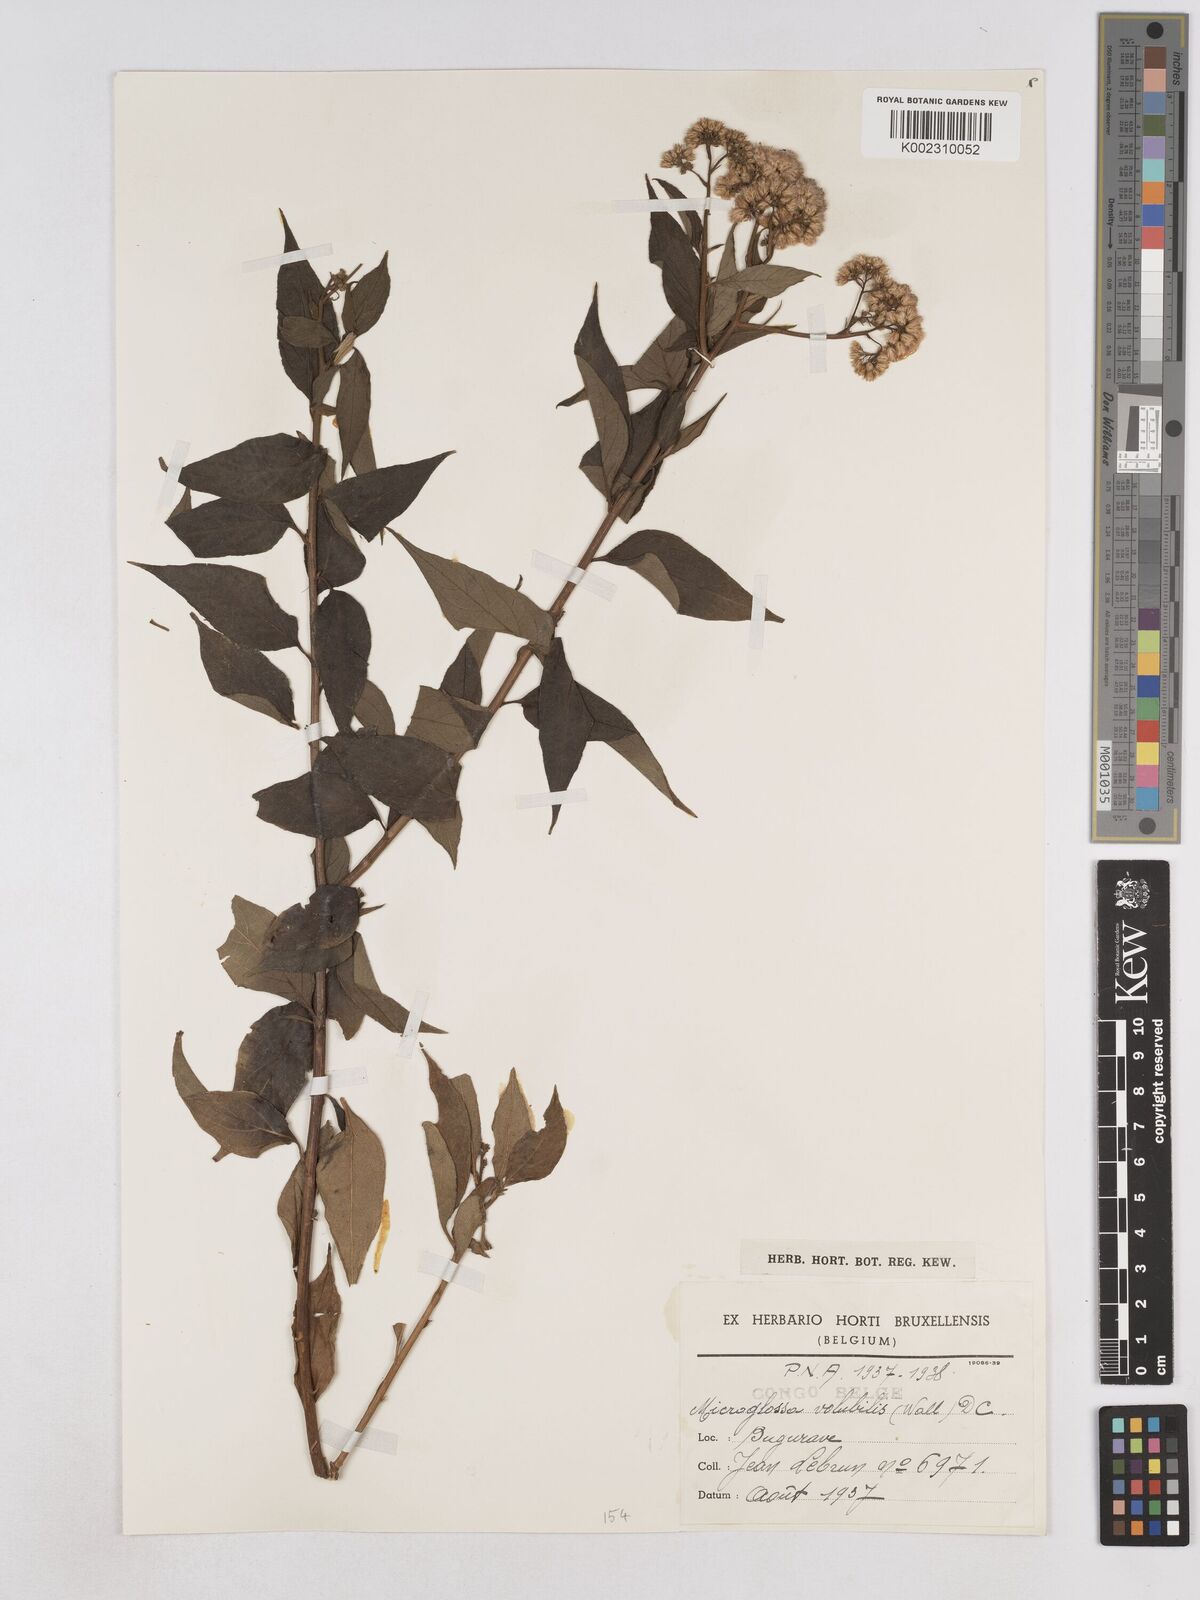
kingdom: Plantae
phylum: Tracheophyta
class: Magnoliopsida
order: Asterales
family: Asteraceae
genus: Microglossa
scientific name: Microglossa pyrifolia
